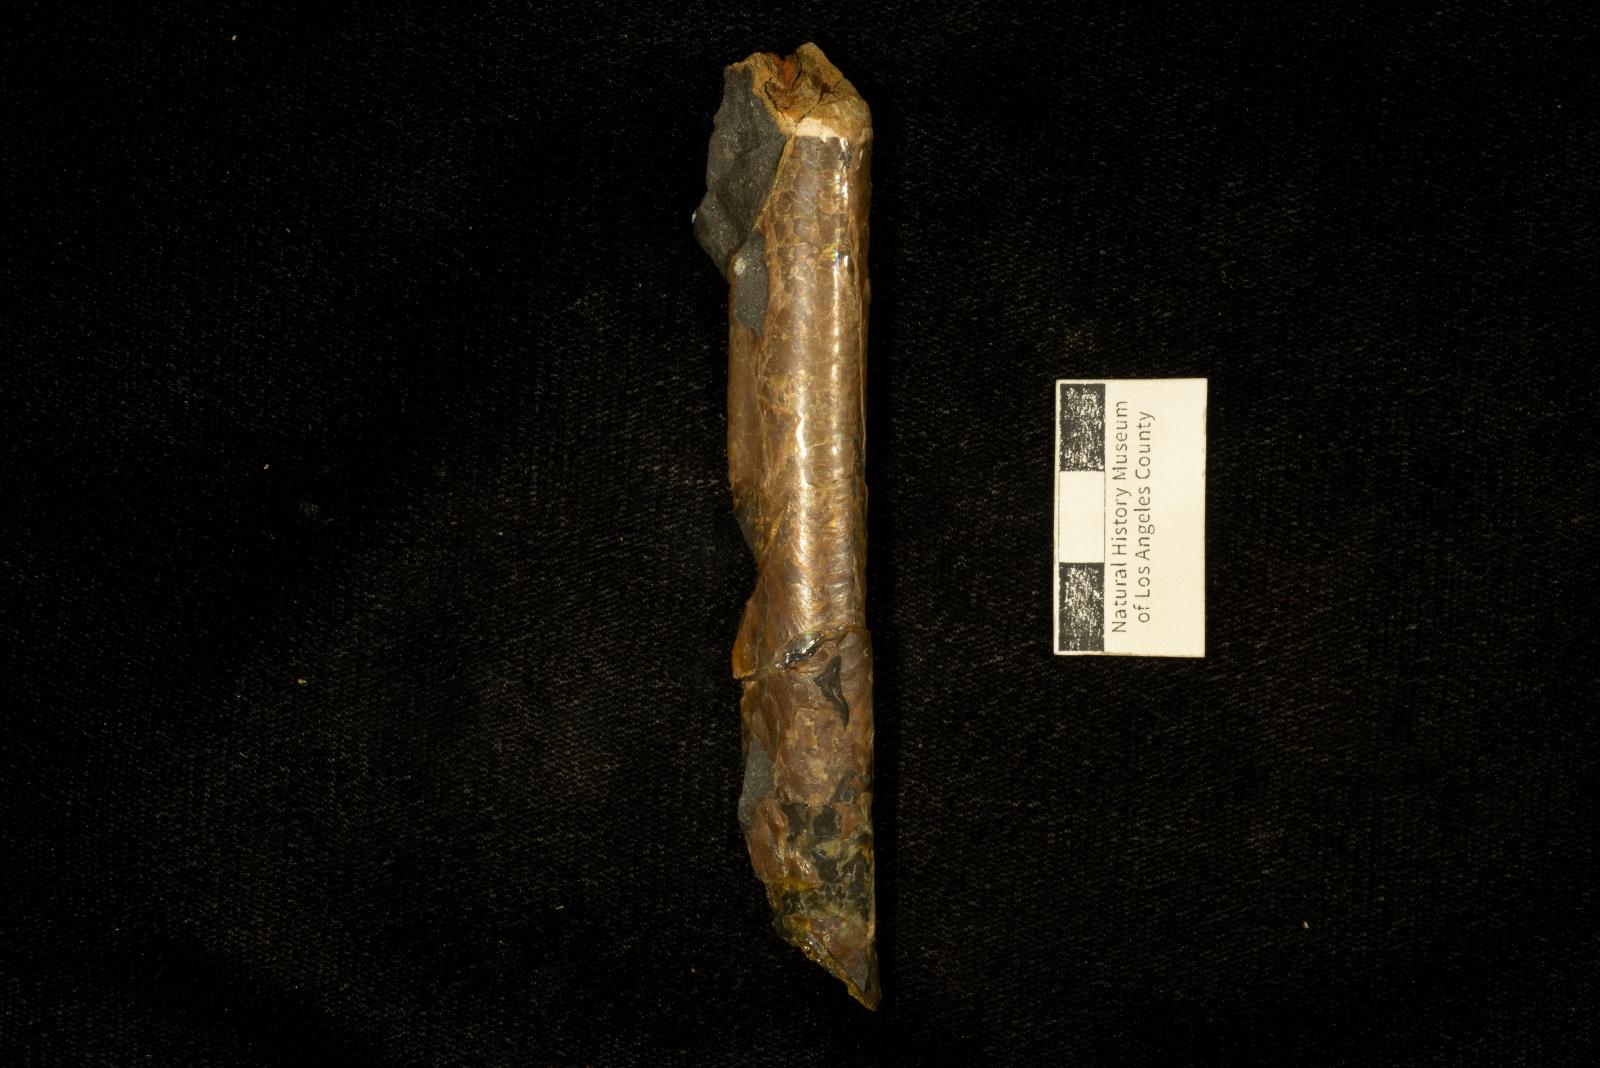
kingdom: Animalia
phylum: Mollusca
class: Cephalopoda
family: Baculitidae
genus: Baculites
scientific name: Baculites chicoensis
